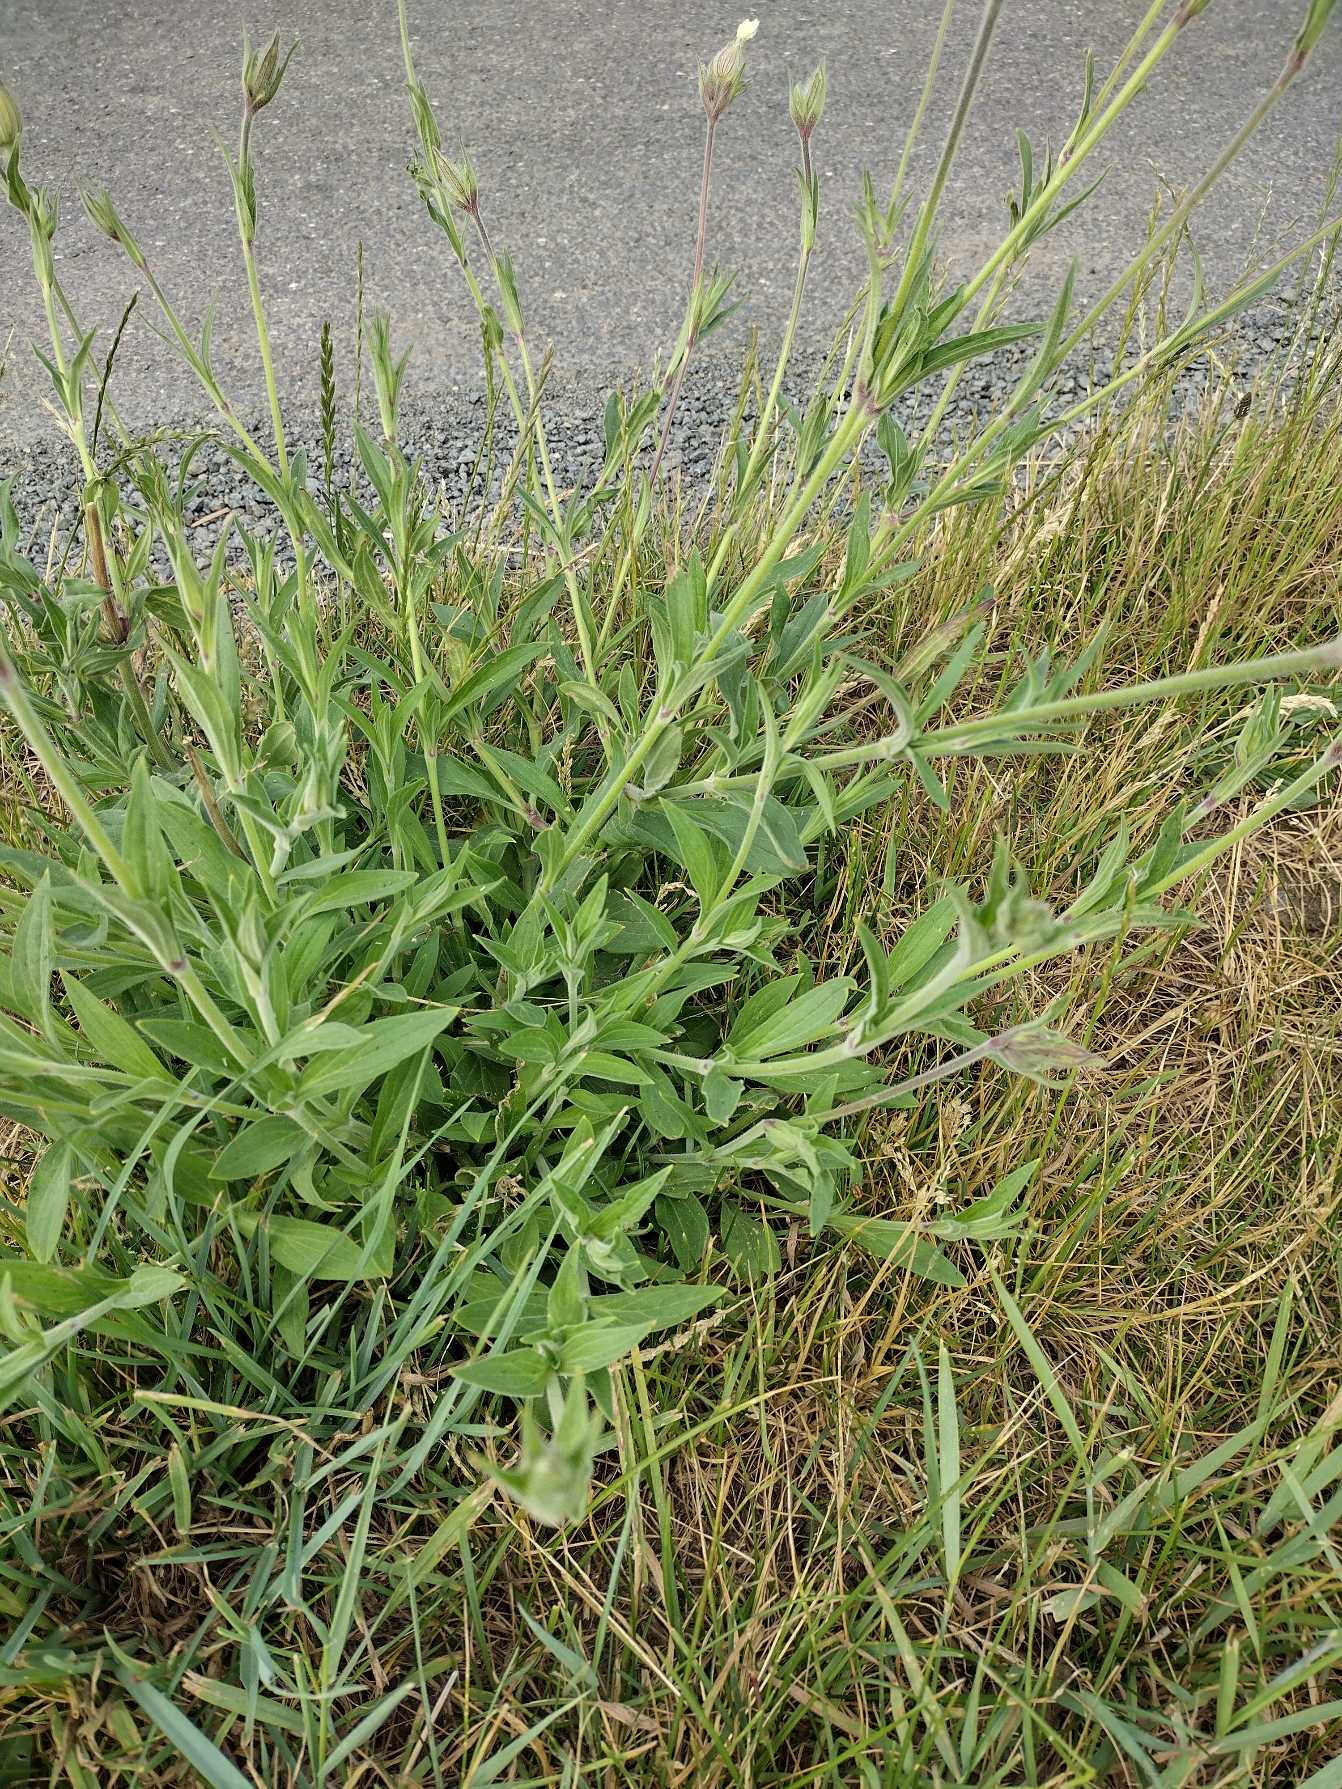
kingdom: Plantae
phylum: Tracheophyta
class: Magnoliopsida
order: Caryophyllales
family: Caryophyllaceae
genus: Silene
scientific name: Silene latifolia
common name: Aftenpragtstjerne
